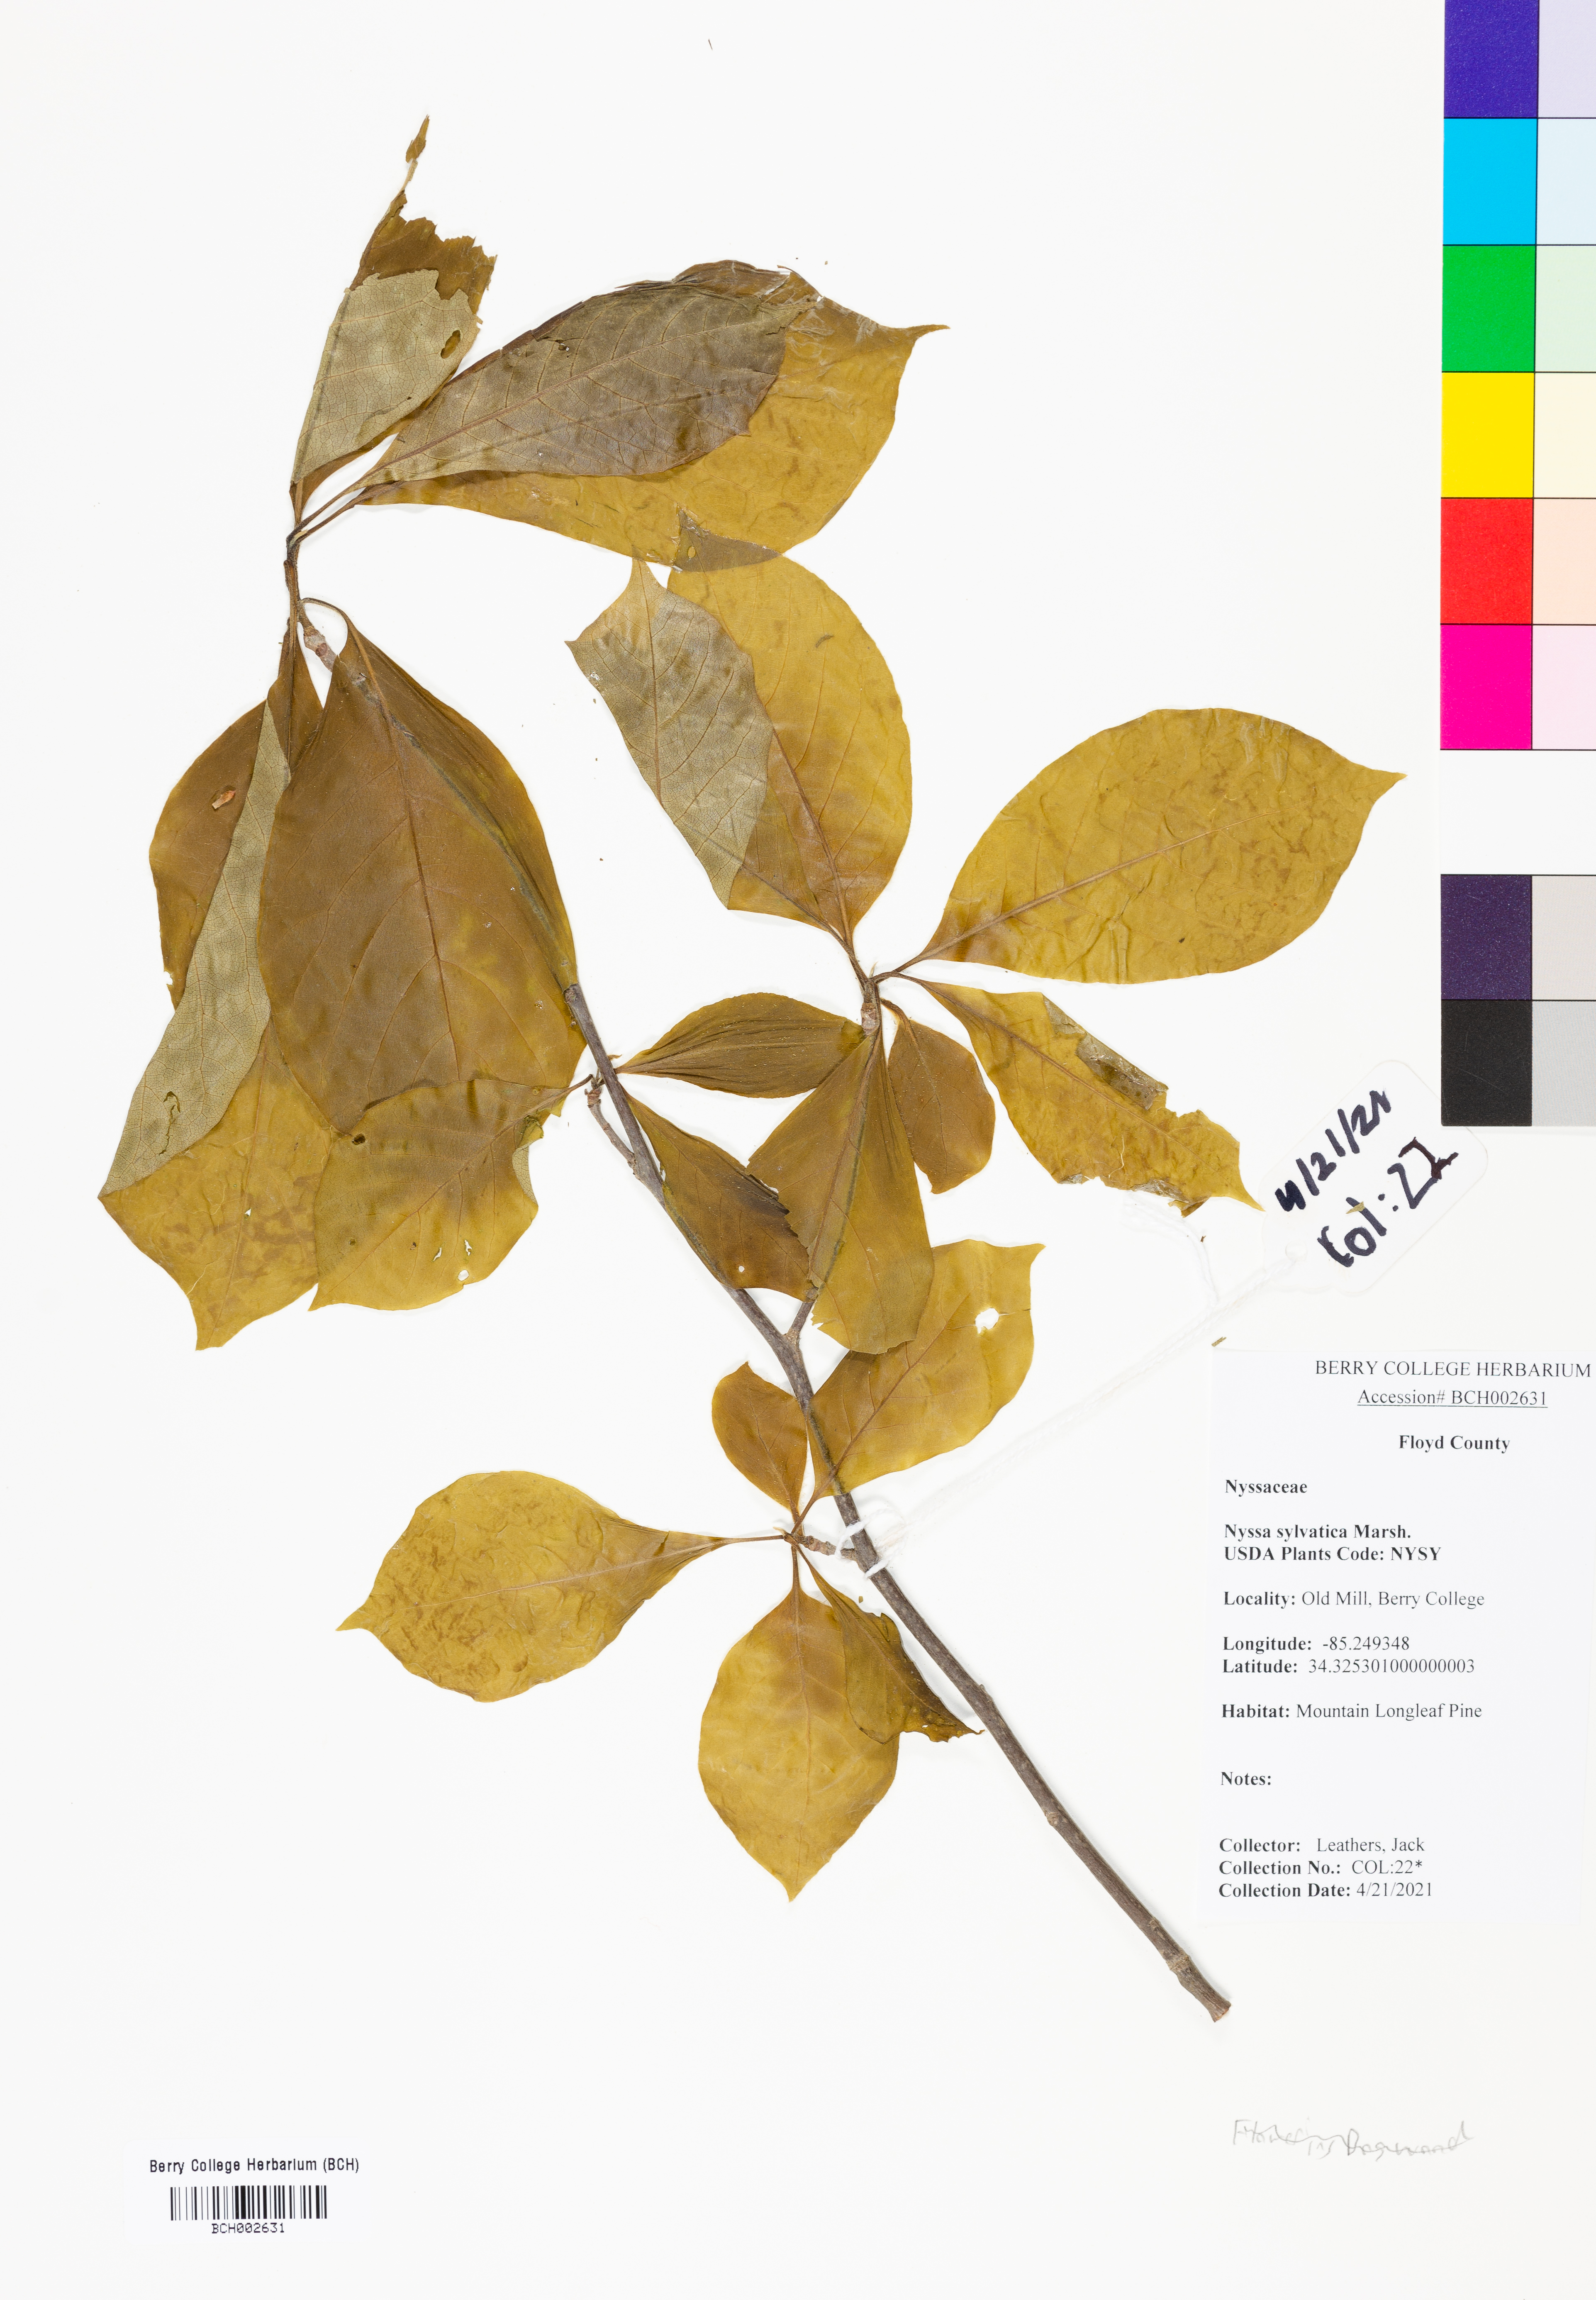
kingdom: Plantae
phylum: Tracheophyta
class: Magnoliopsida
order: Cornales
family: Nyssaceae
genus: Nyssa
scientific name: Nyssa sylvatica
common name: Black tupelo
